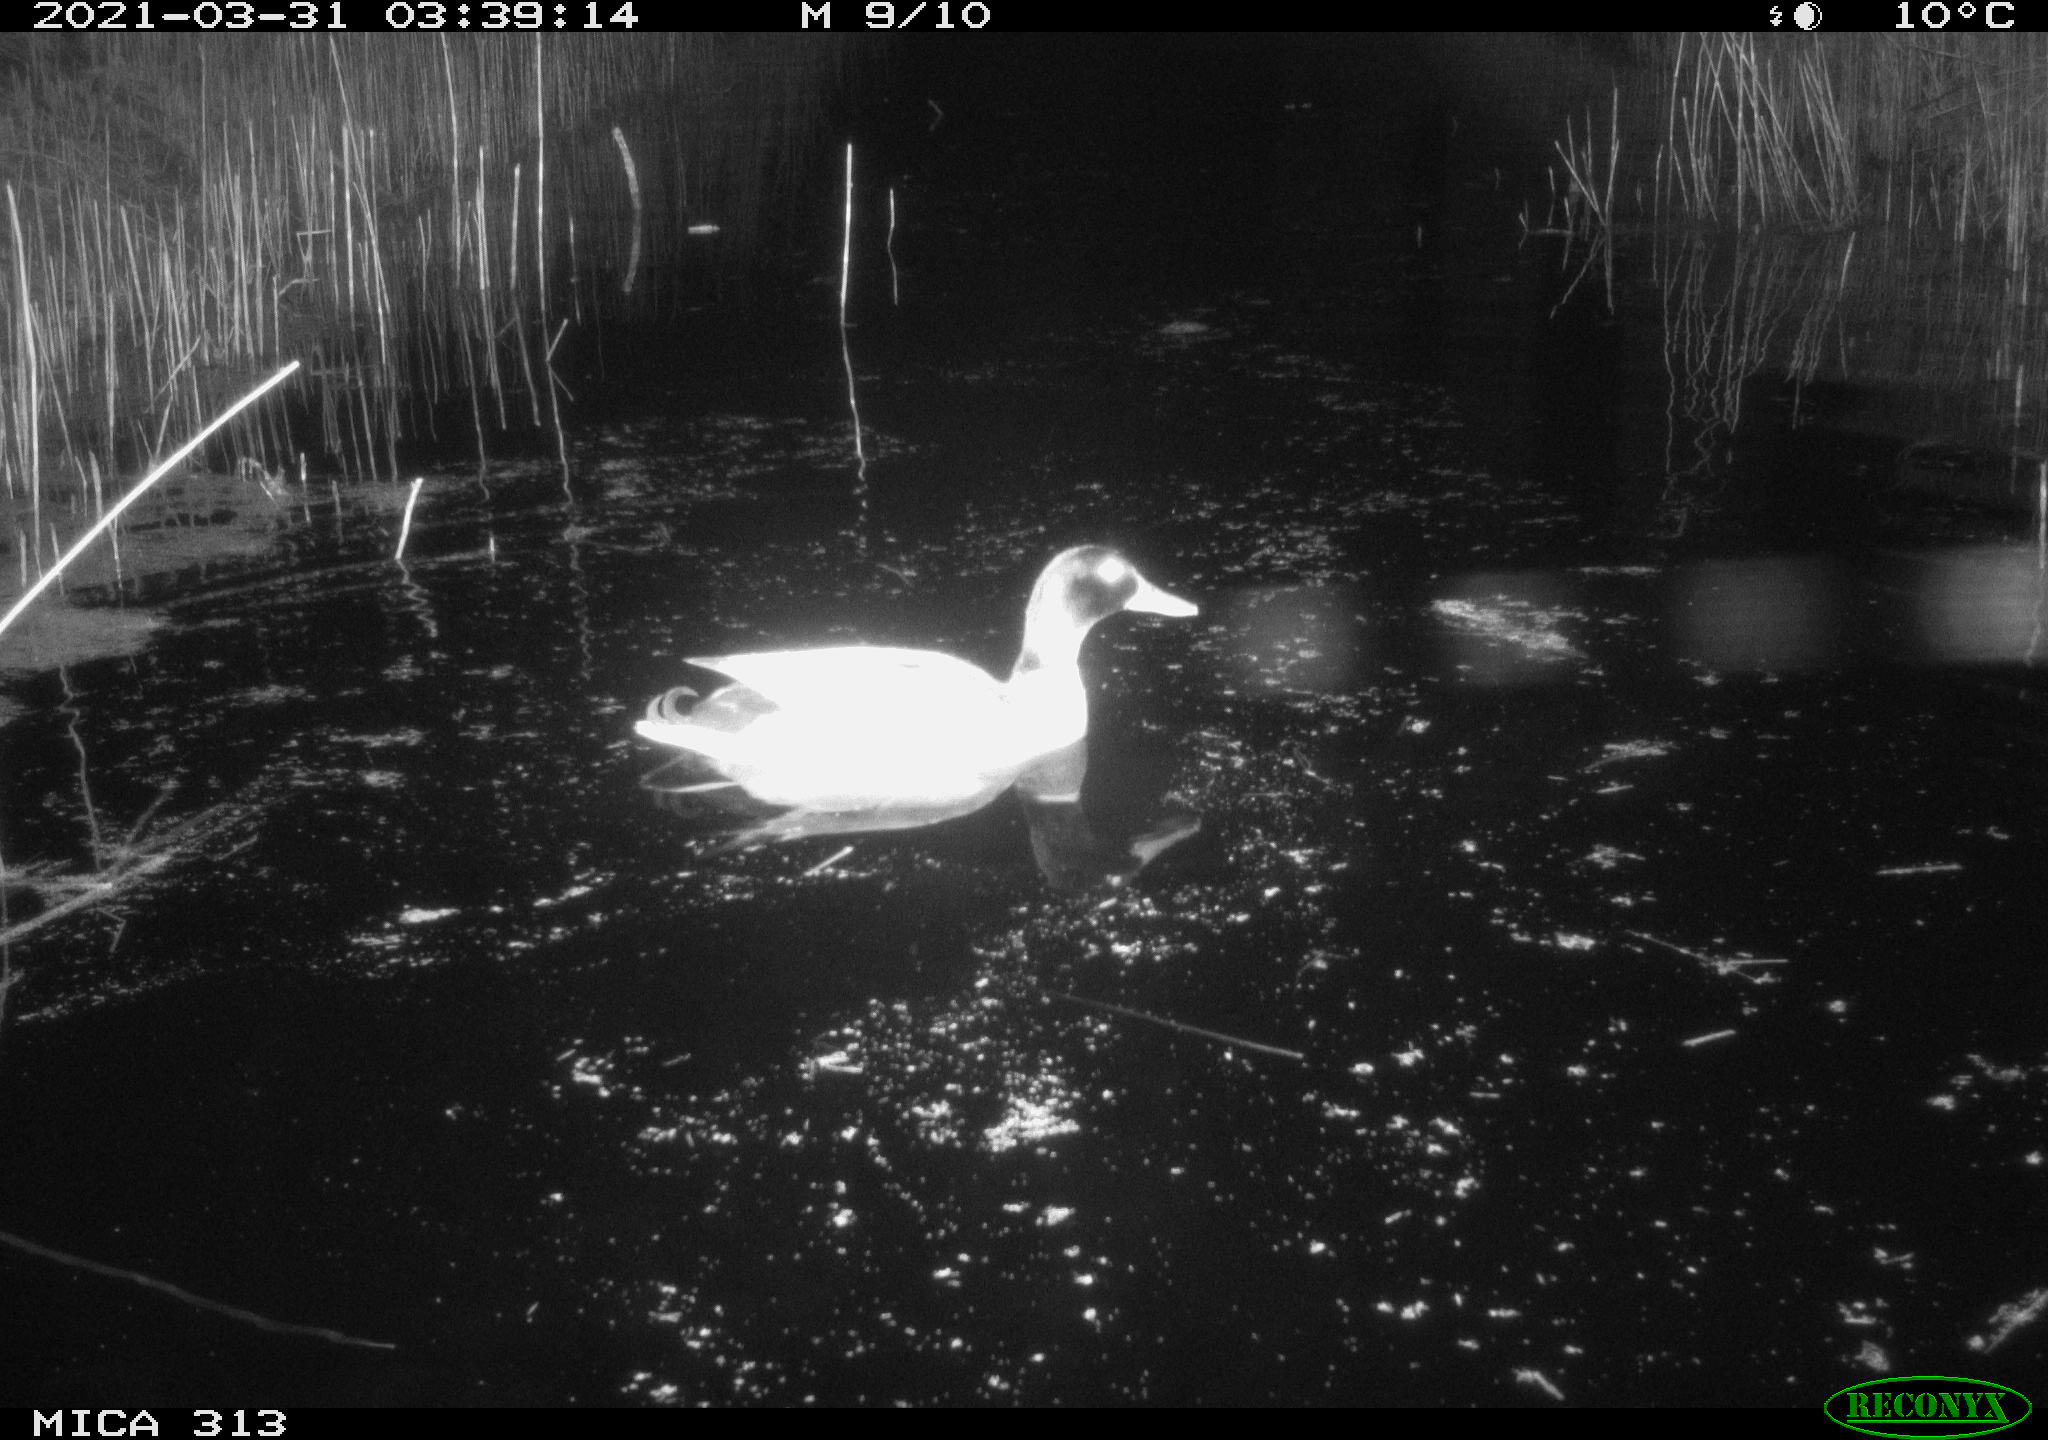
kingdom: Animalia
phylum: Chordata
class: Aves
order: Anseriformes
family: Anatidae
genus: Anas
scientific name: Anas platyrhynchos
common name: Mallard
